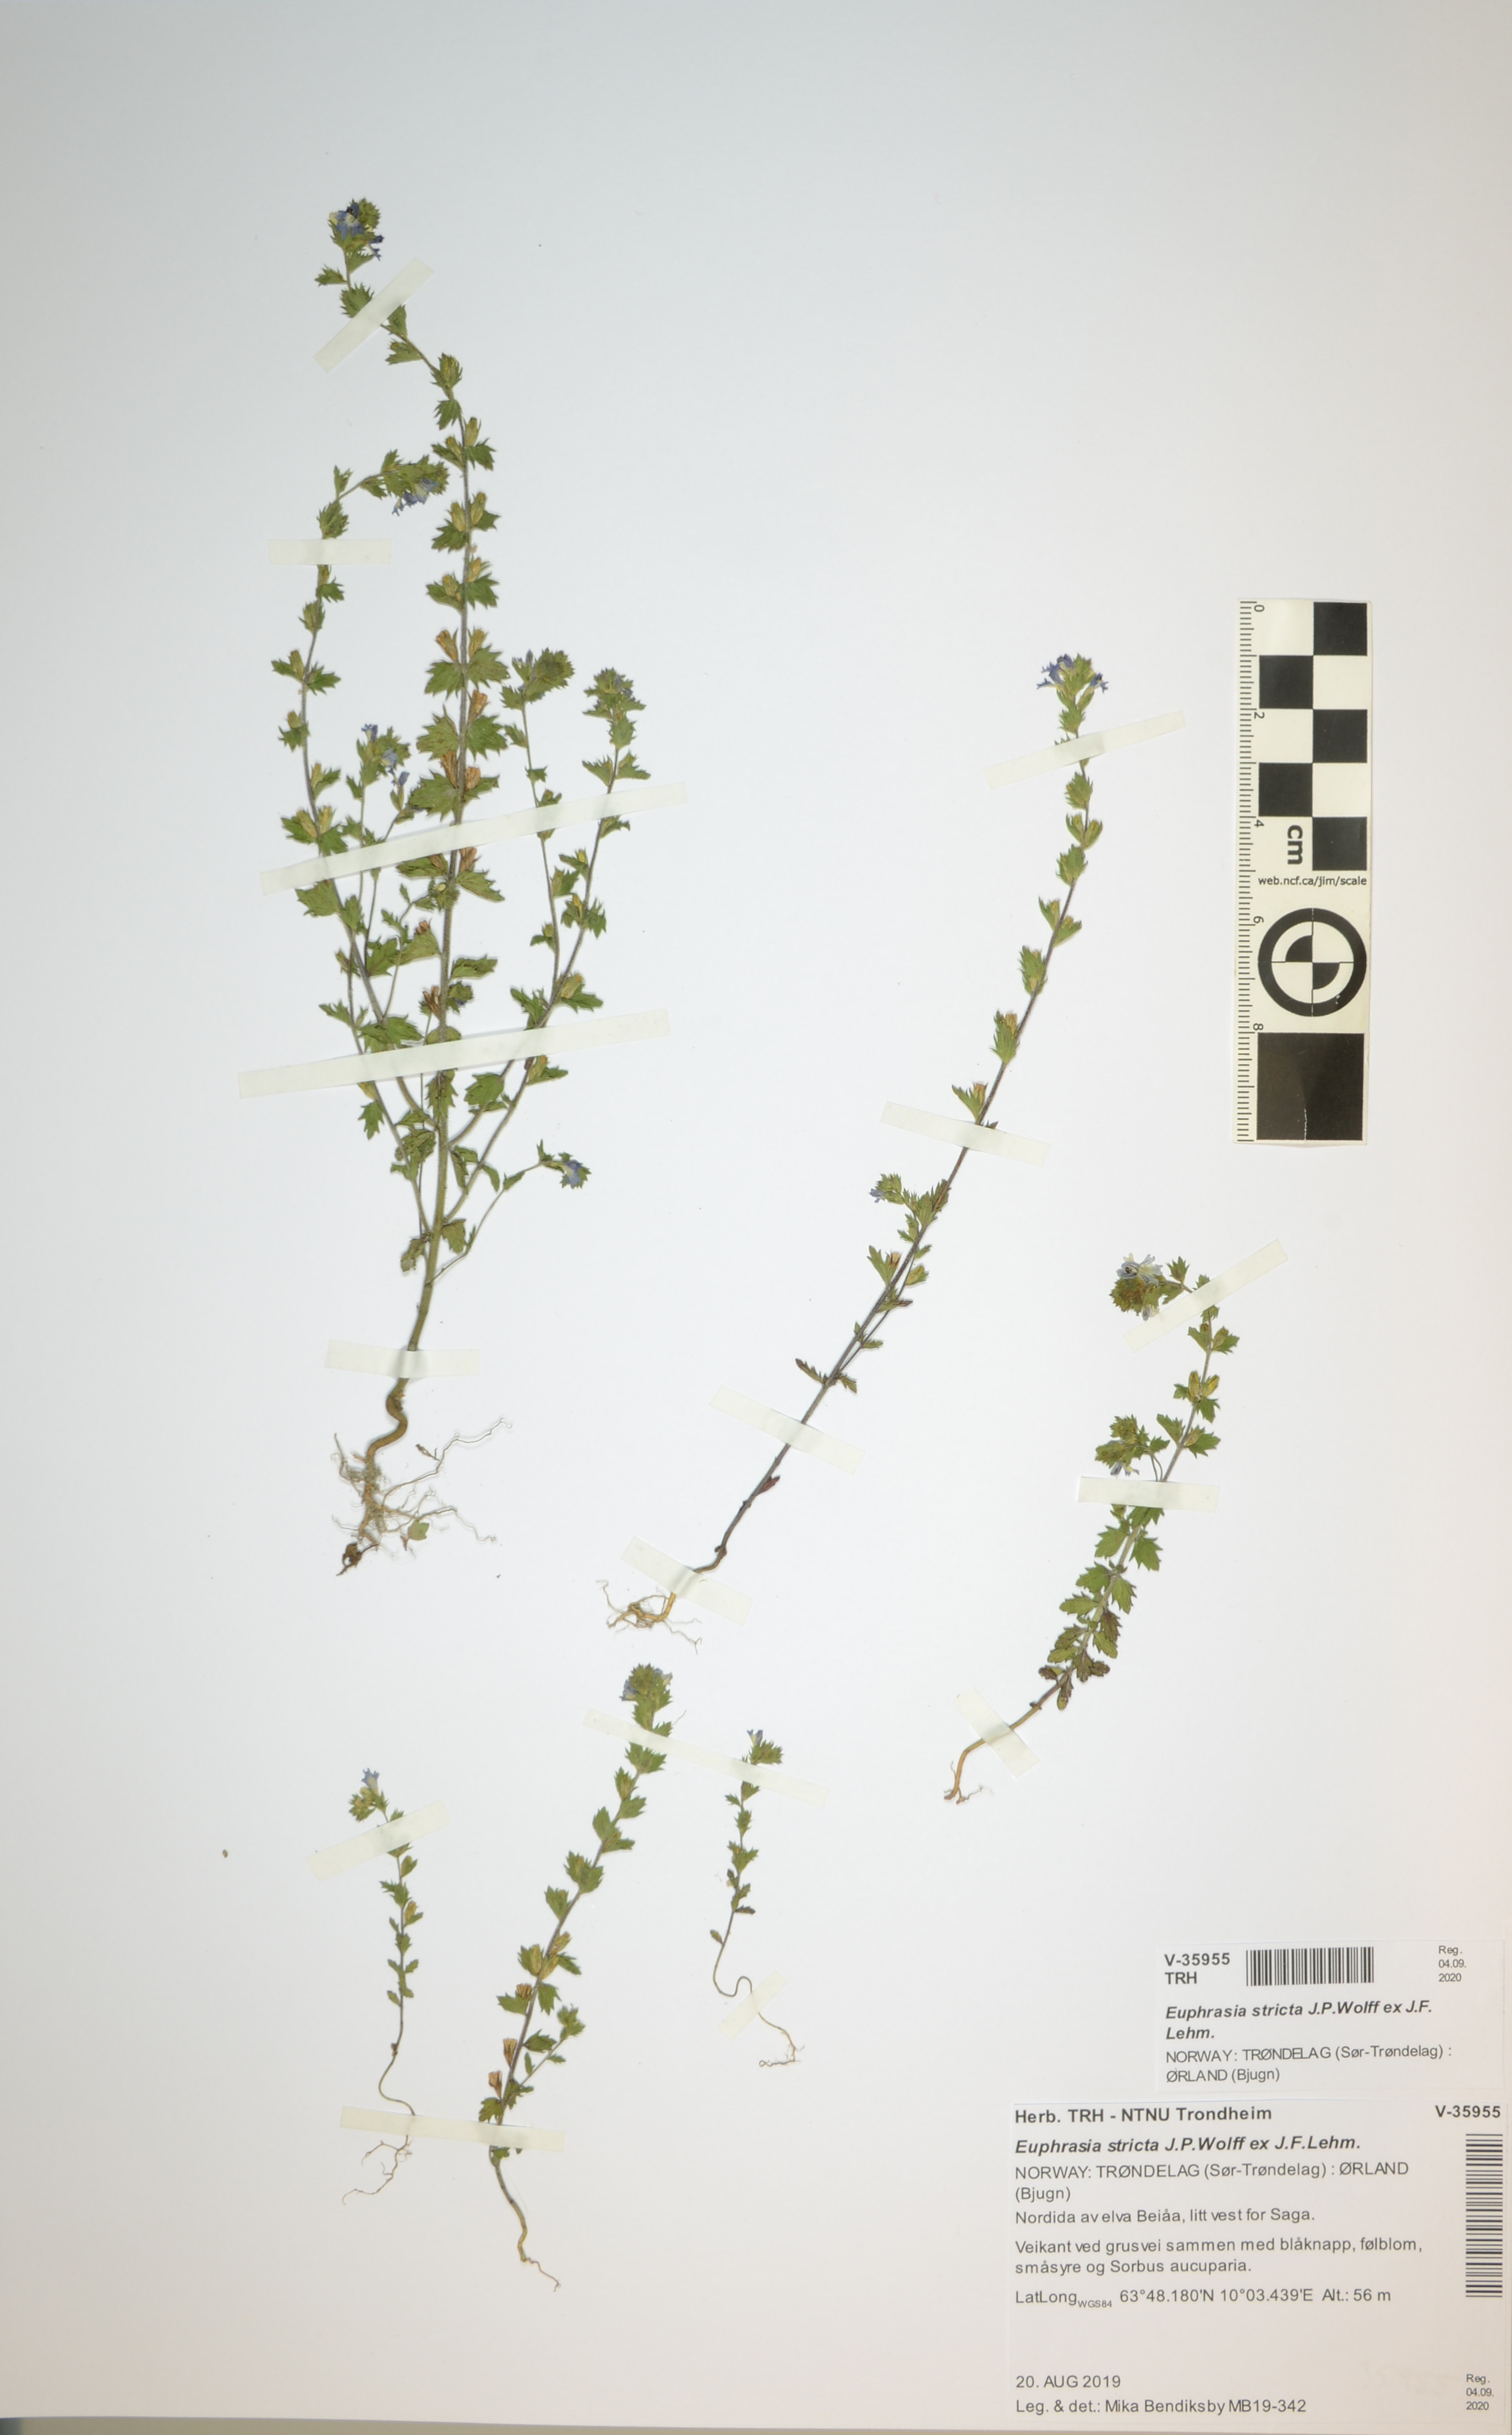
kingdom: Plantae
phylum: Tracheophyta
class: Magnoliopsida
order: Lamiales
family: Orobanchaceae
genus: Euphrasia
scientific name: Euphrasia stricta
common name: Drug eyebright
